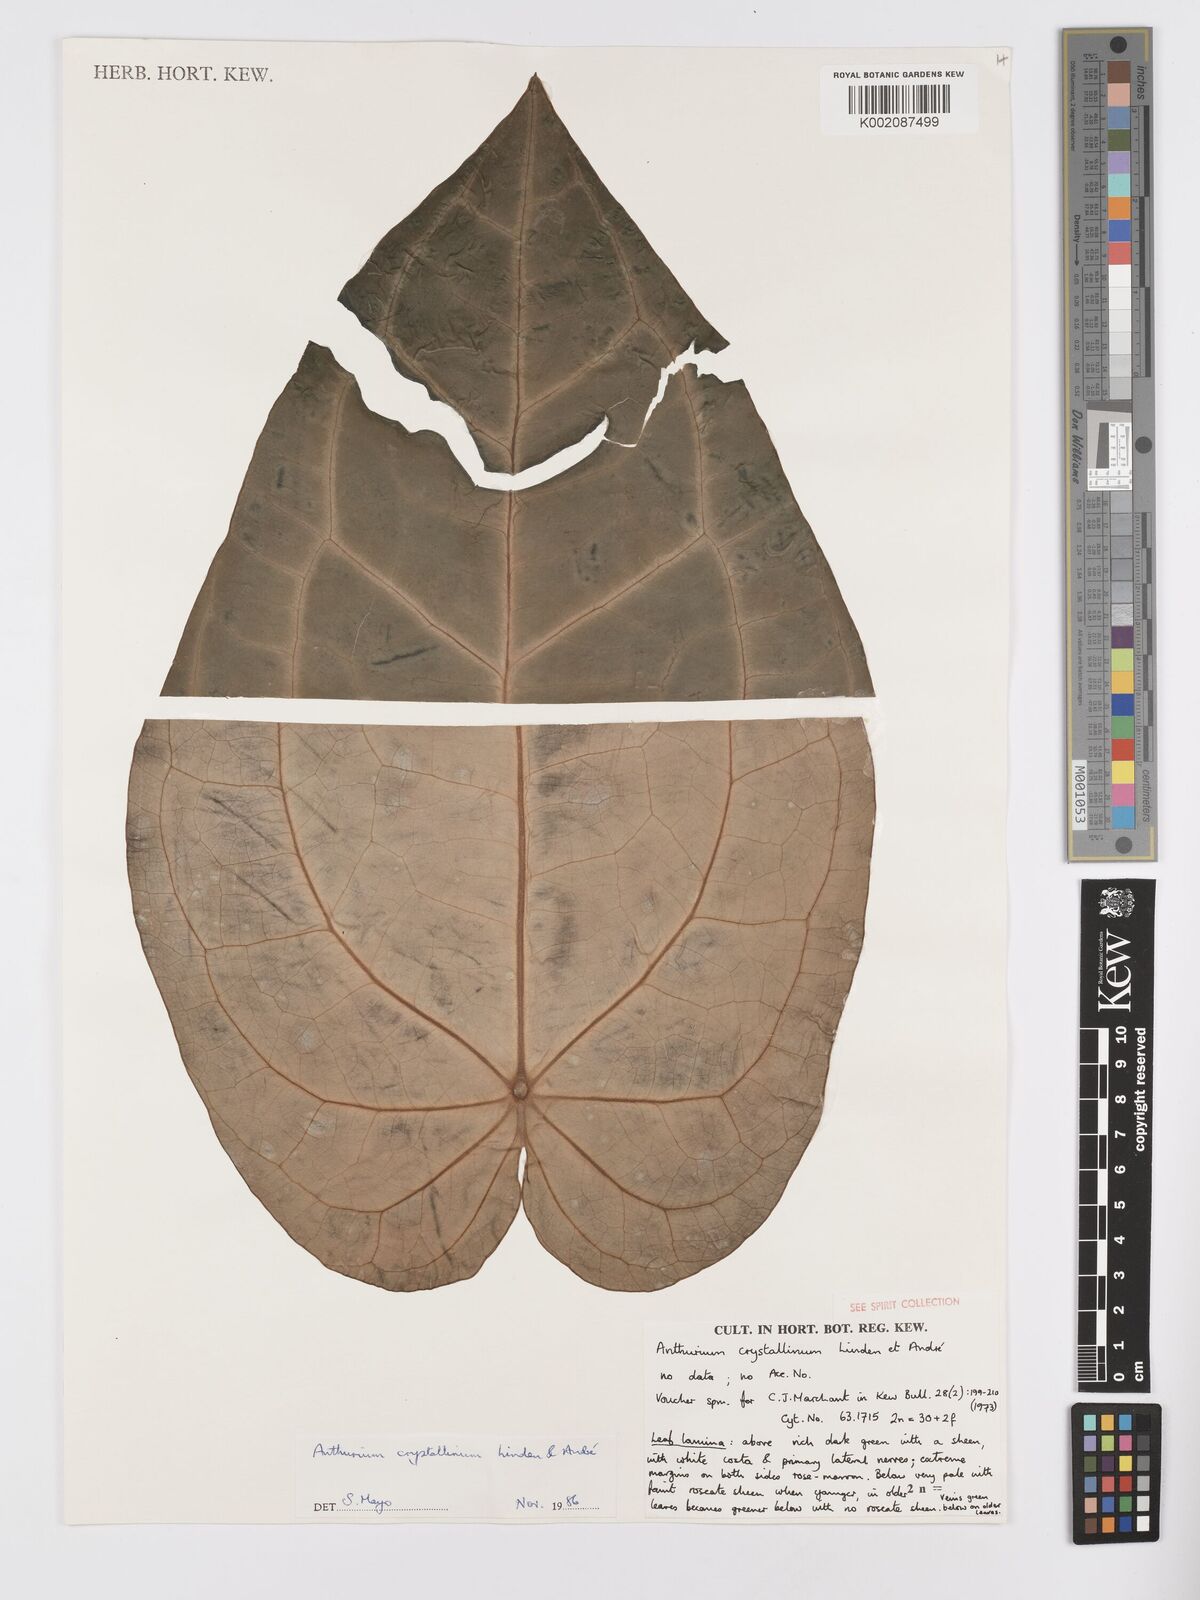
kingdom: Plantae
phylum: Tracheophyta
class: Liliopsida
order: Alismatales
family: Araceae
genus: Anthurium
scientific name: Anthurium crystallinum
